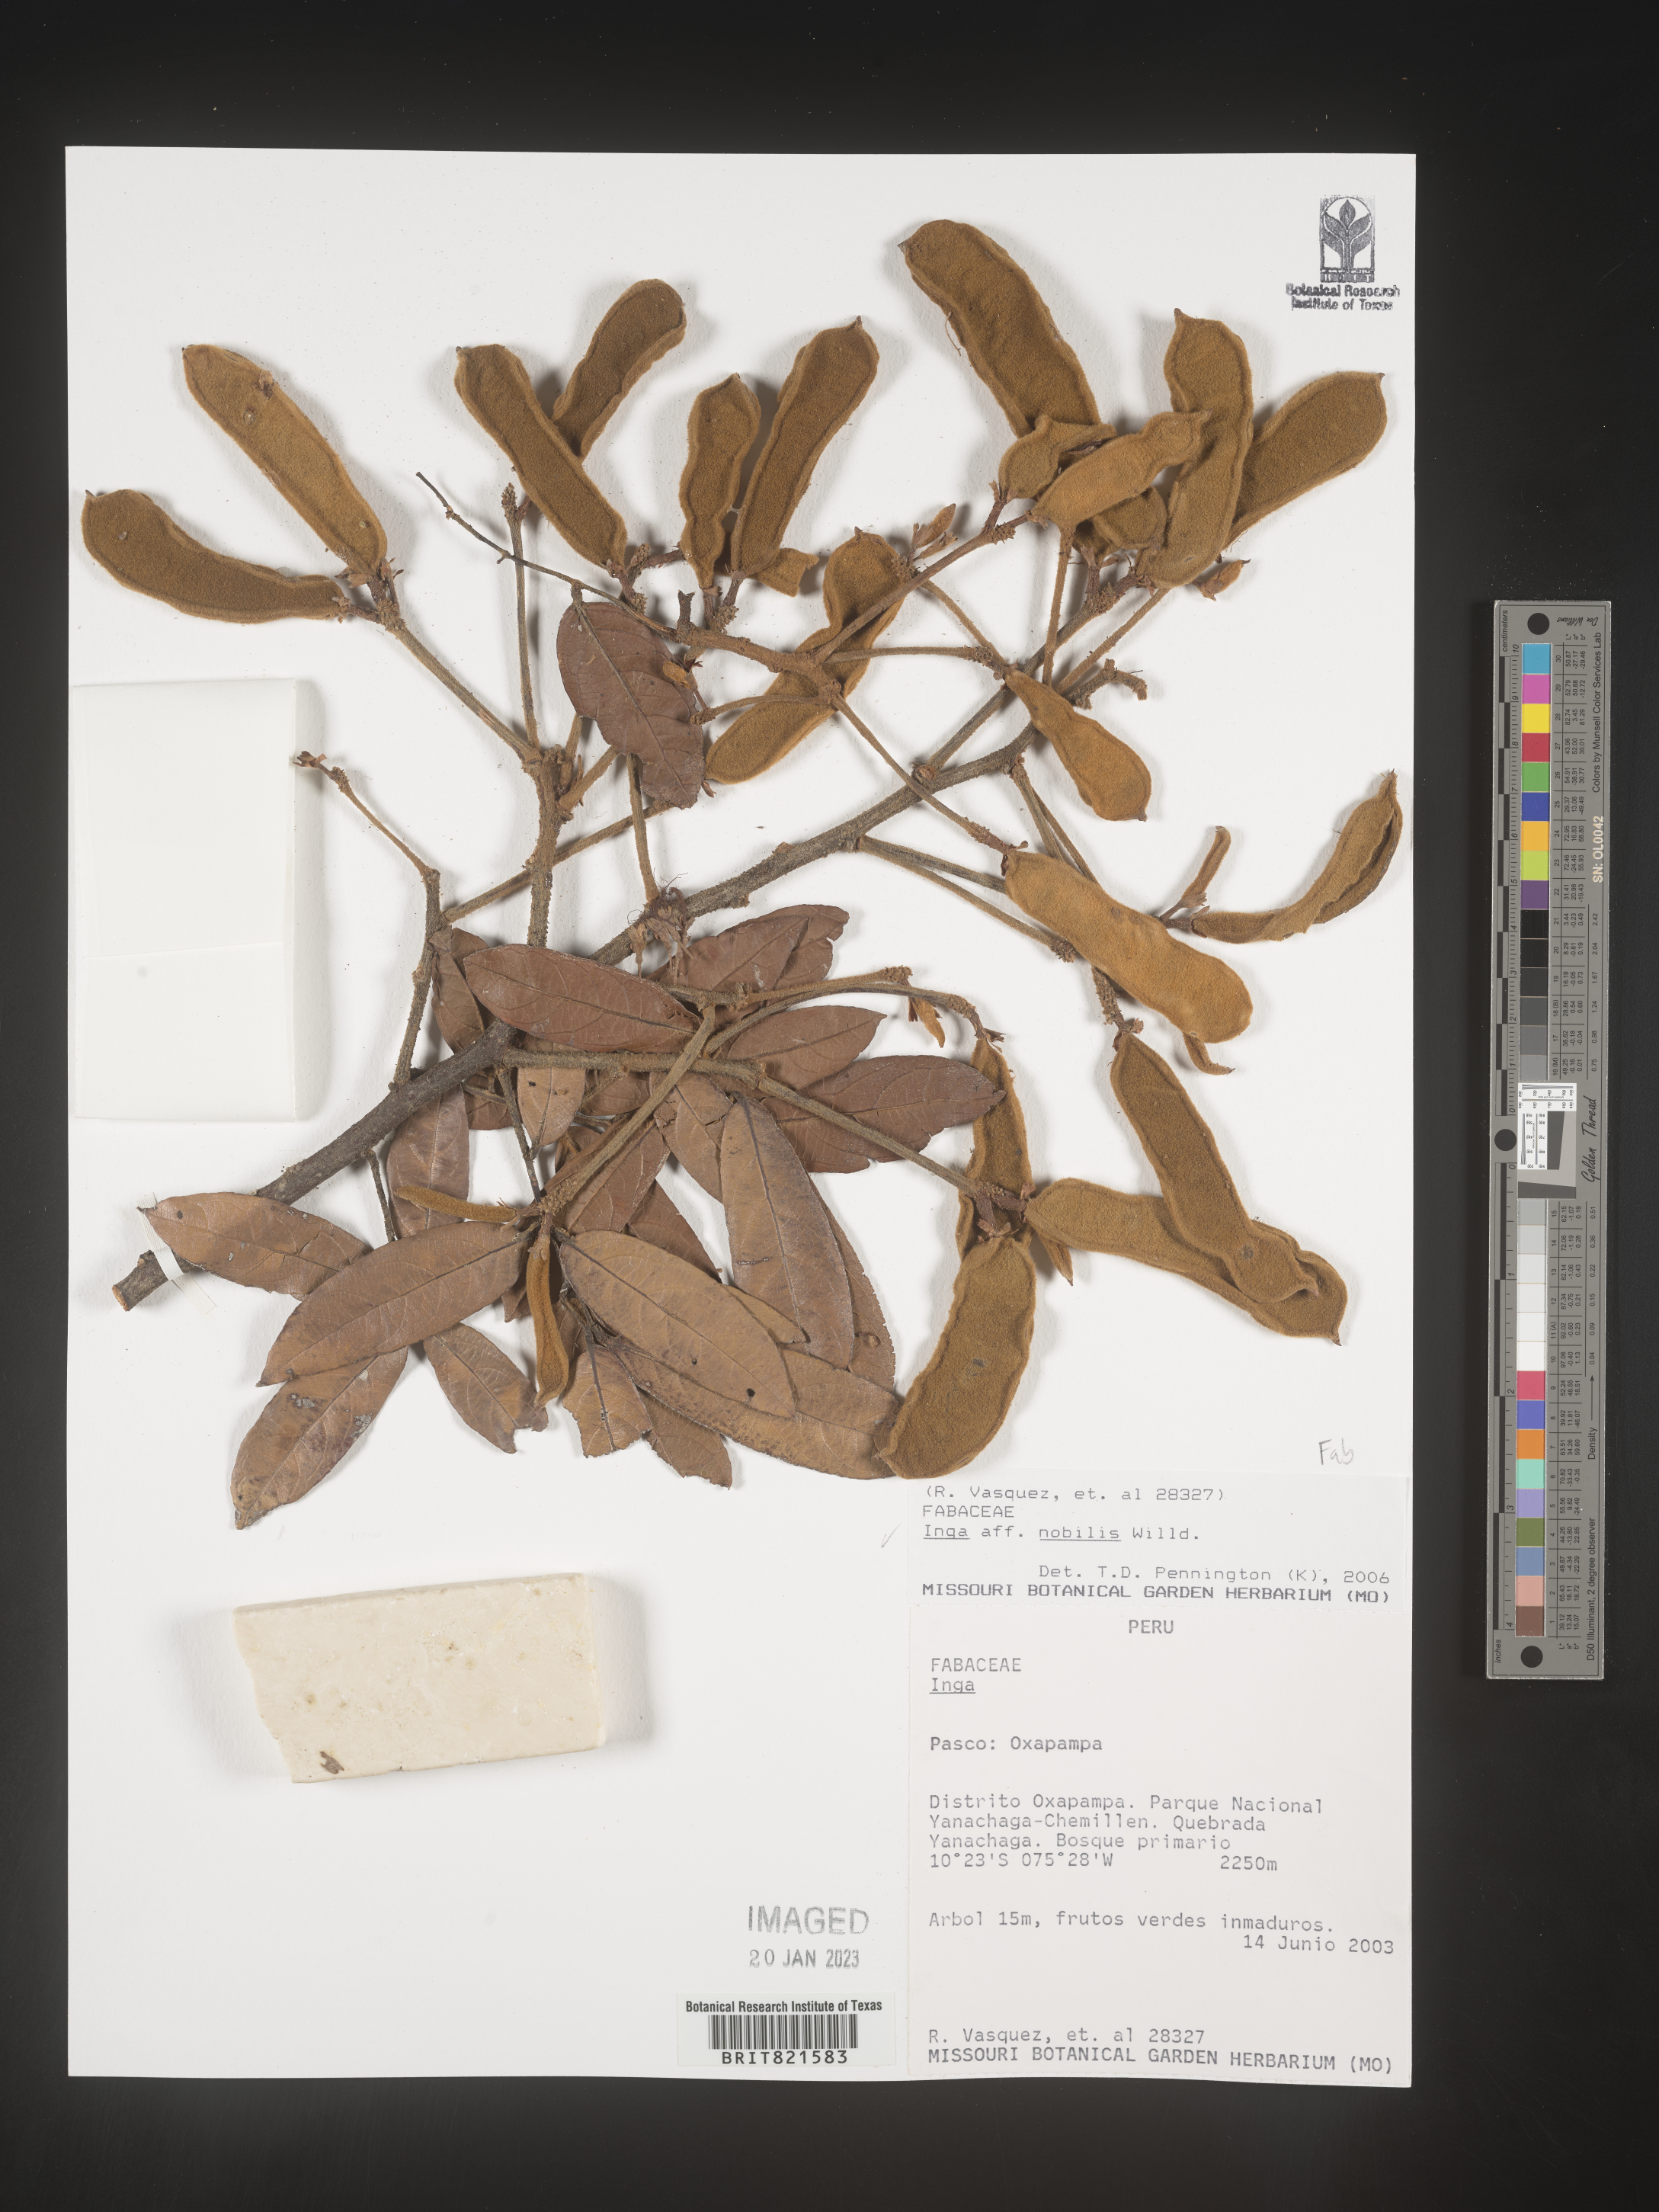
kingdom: Plantae
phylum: Tracheophyta
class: Magnoliopsida
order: Fabales
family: Fabaceae
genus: Inga
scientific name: Inga
